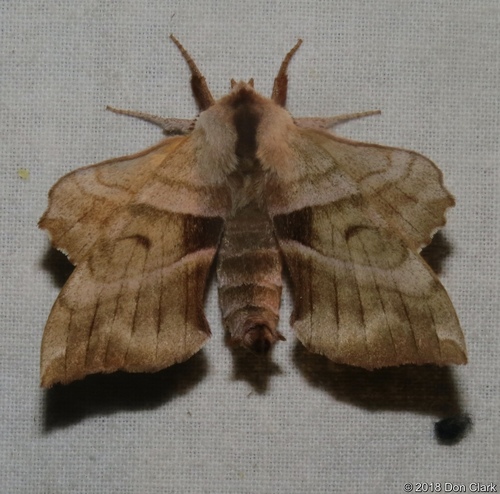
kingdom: Animalia
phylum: Arthropoda
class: Insecta
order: Lepidoptera
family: Sphingidae
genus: Amorpha
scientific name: Amorpha juglandis
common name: Walnut sphinx
